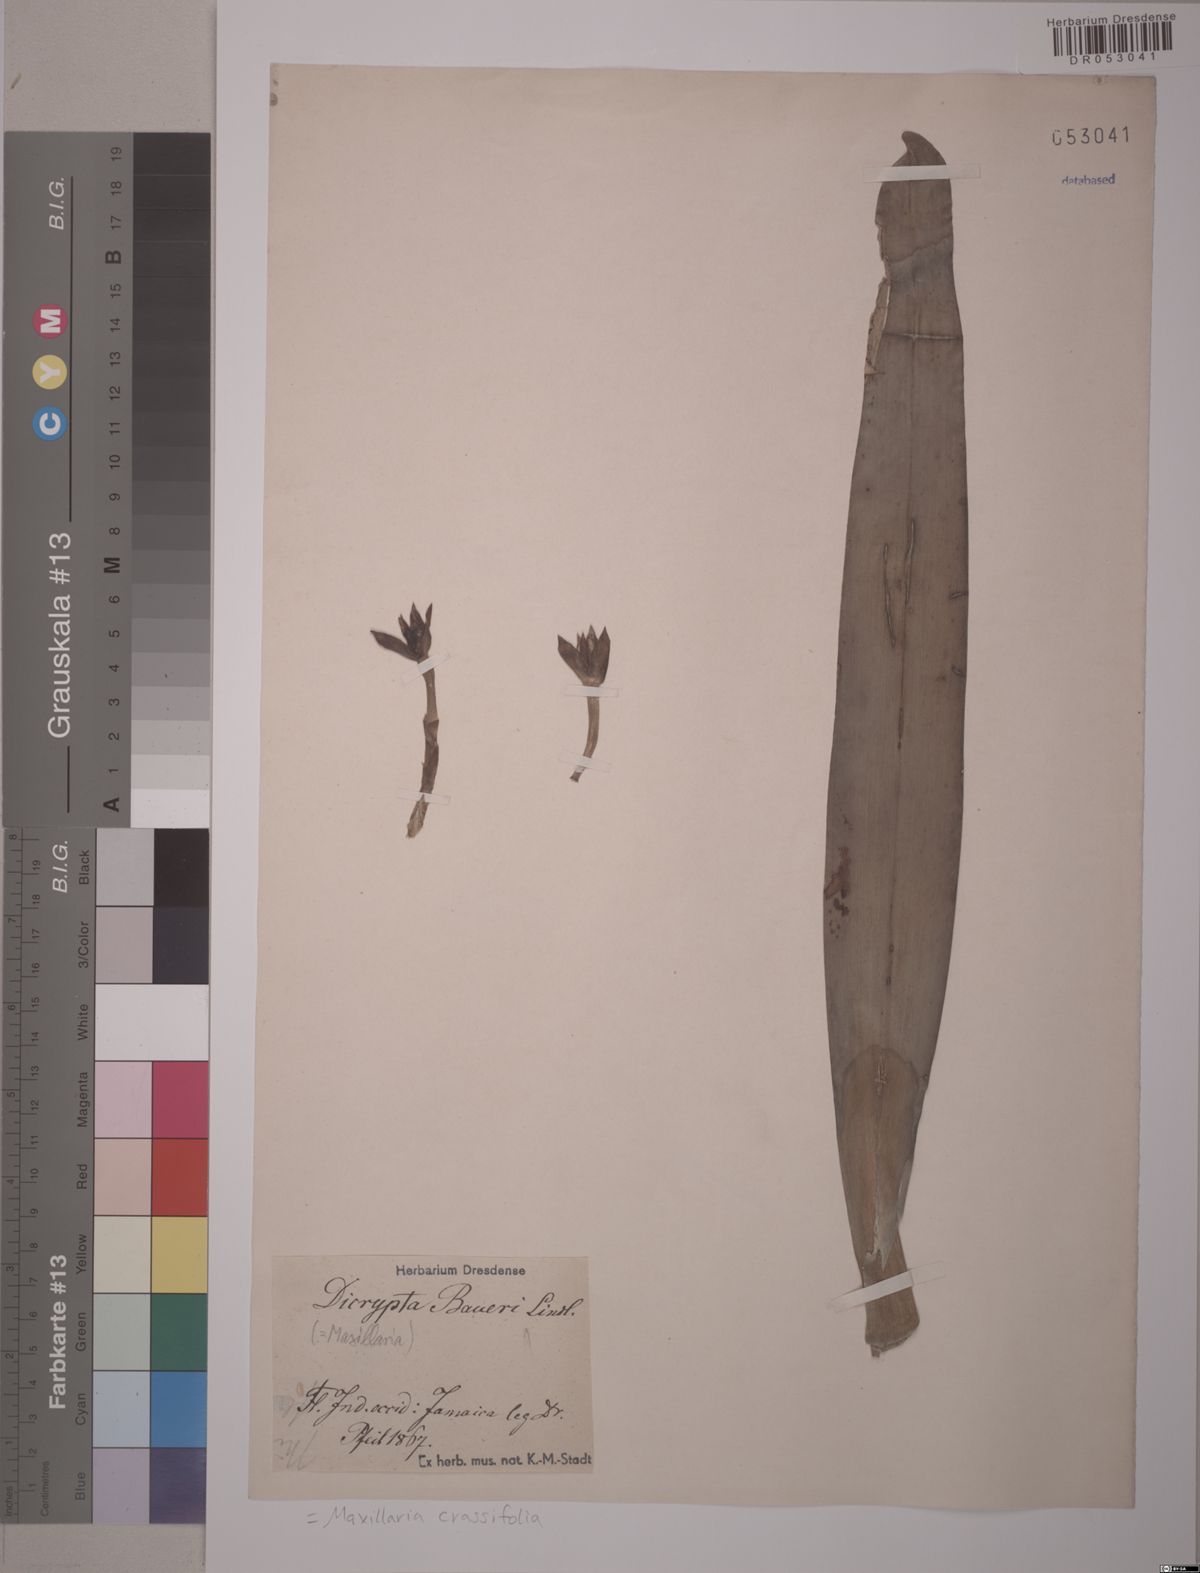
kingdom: Plantae
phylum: Tracheophyta
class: Liliopsida
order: Asparagales
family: Orchidaceae
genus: Maxillaria
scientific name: Maxillaria crassifolia
